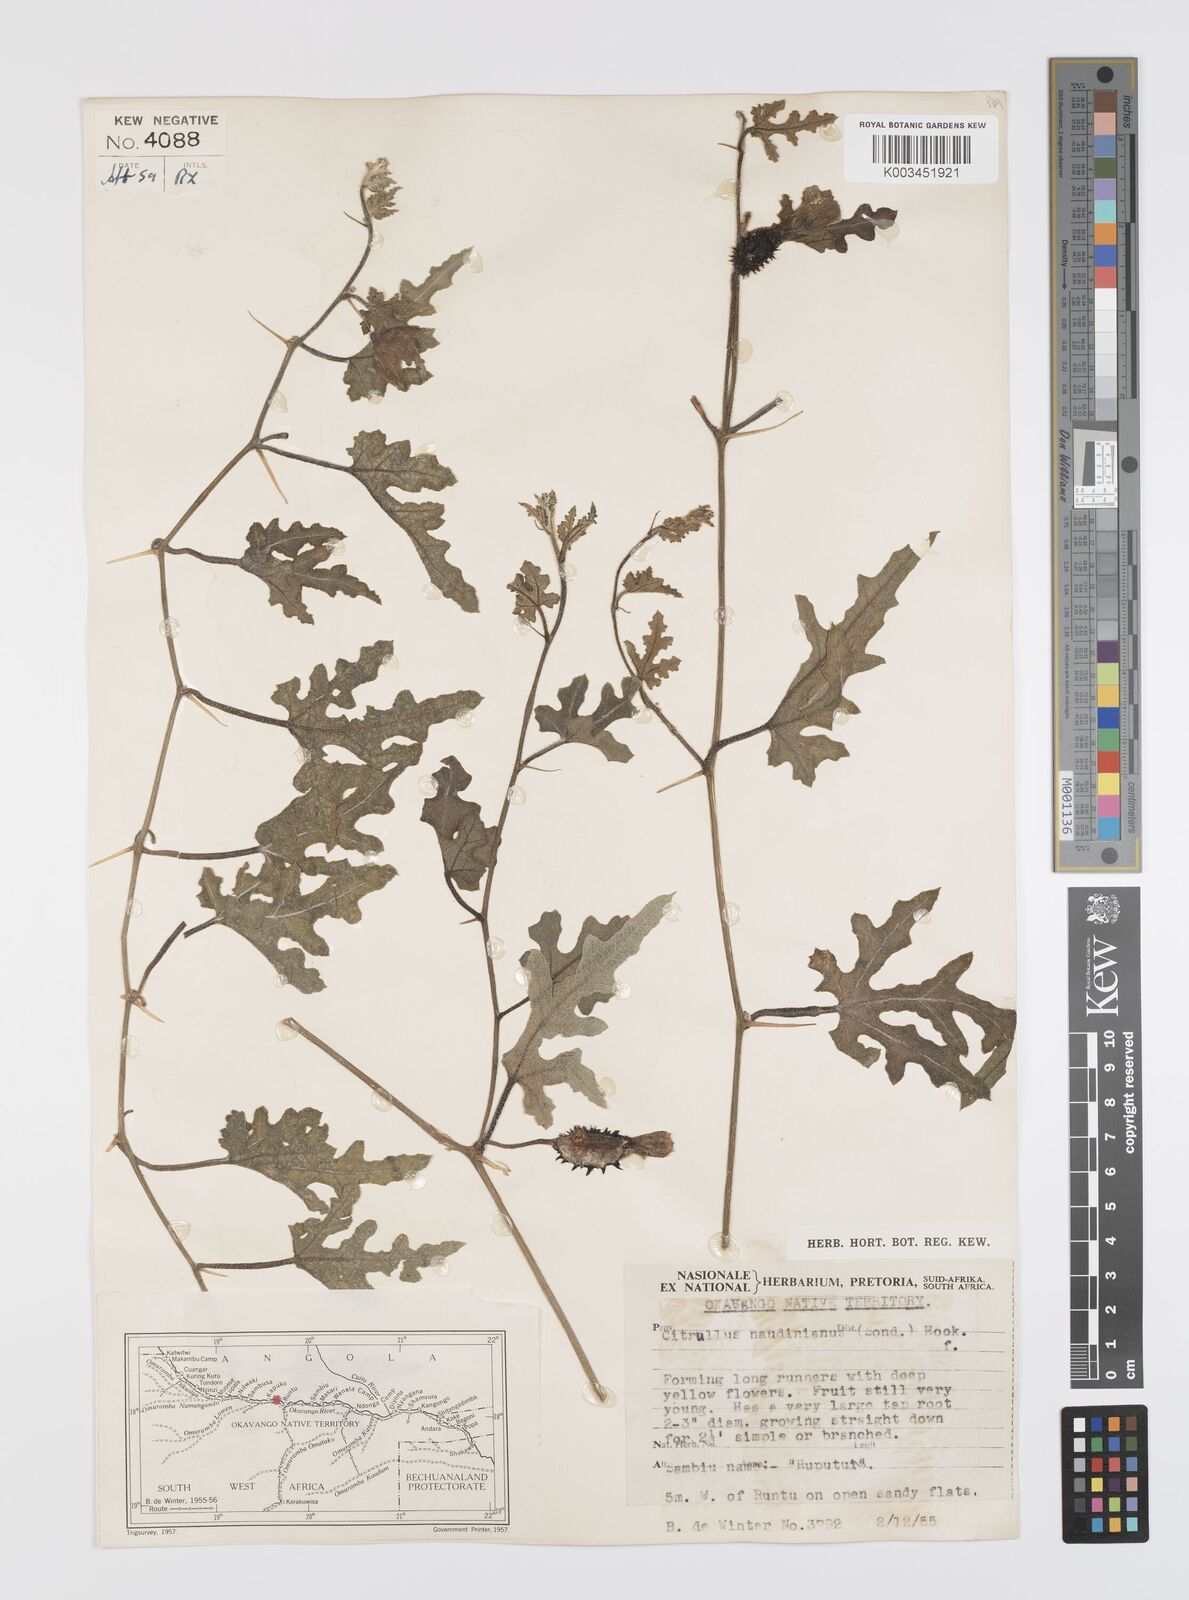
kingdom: Plantae
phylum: Tracheophyta
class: Magnoliopsida
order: Cucurbitales
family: Cucurbitaceae
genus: Citrullus
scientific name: Citrullus naudinianus
